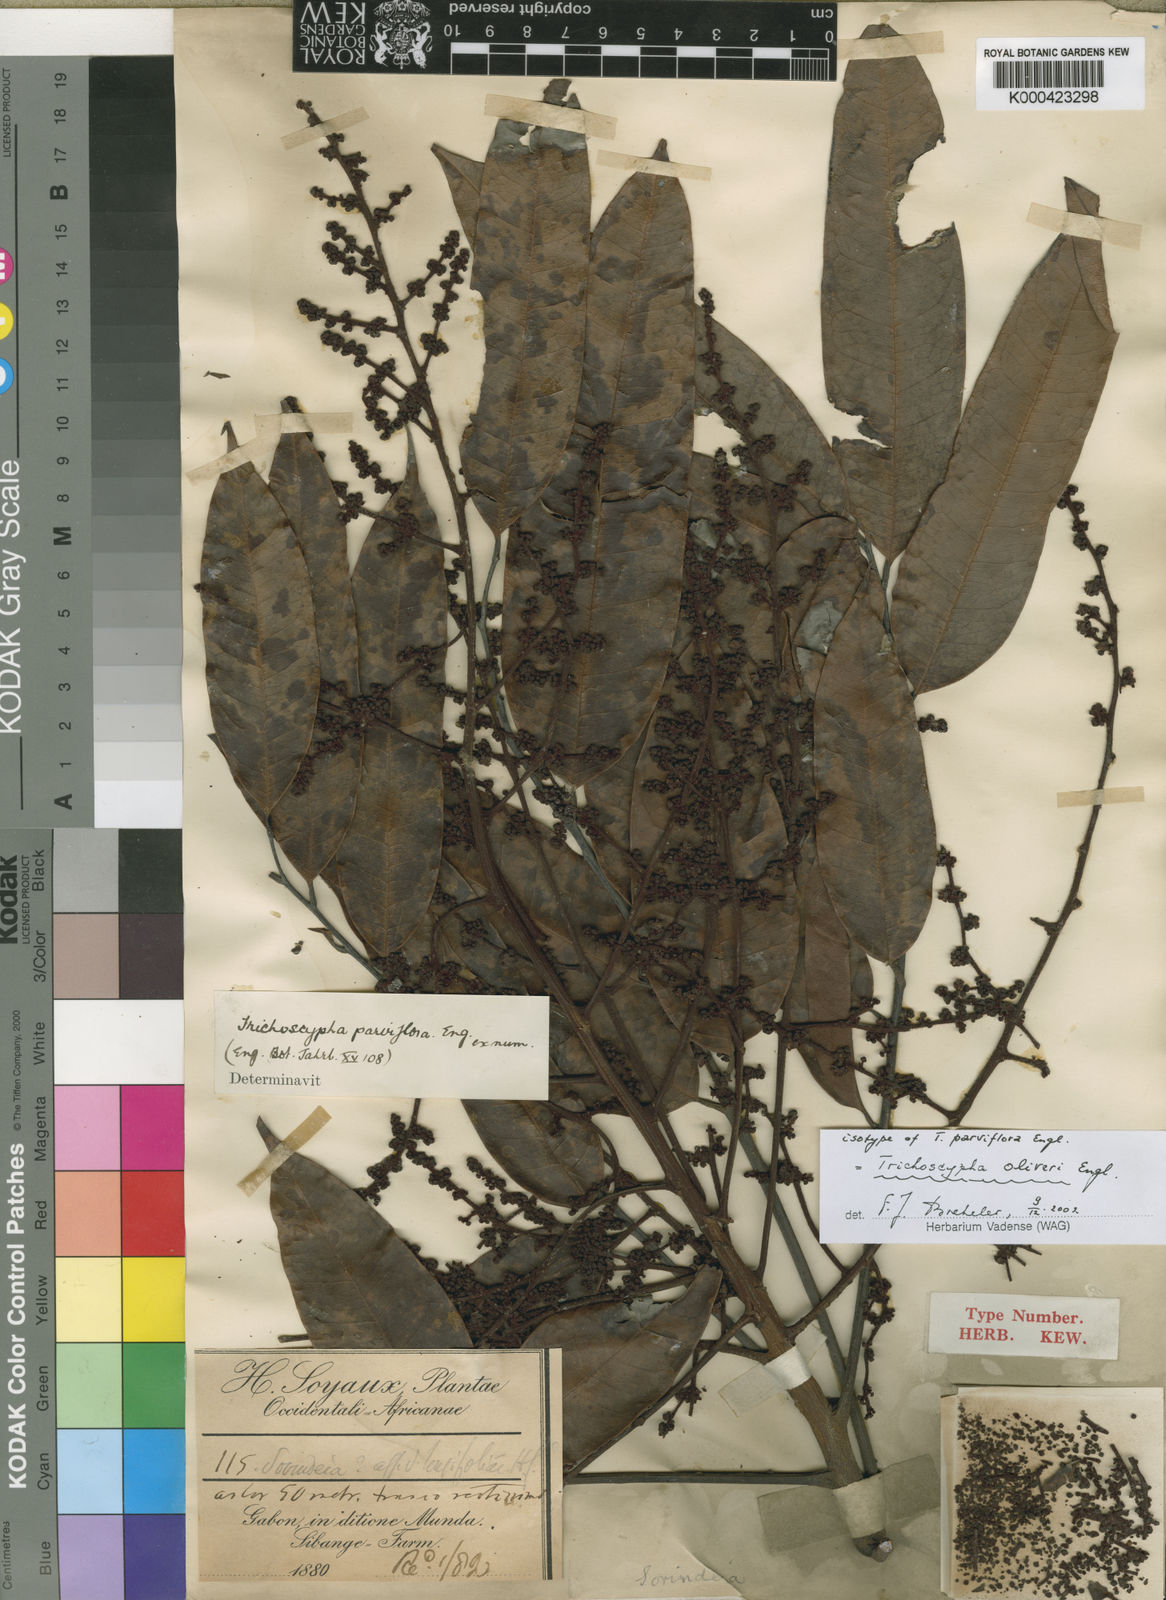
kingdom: Plantae
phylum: Tracheophyta
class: Magnoliopsida
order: Sapindales
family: Anacardiaceae
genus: Trichoscypha
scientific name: Trichoscypha oliveri
